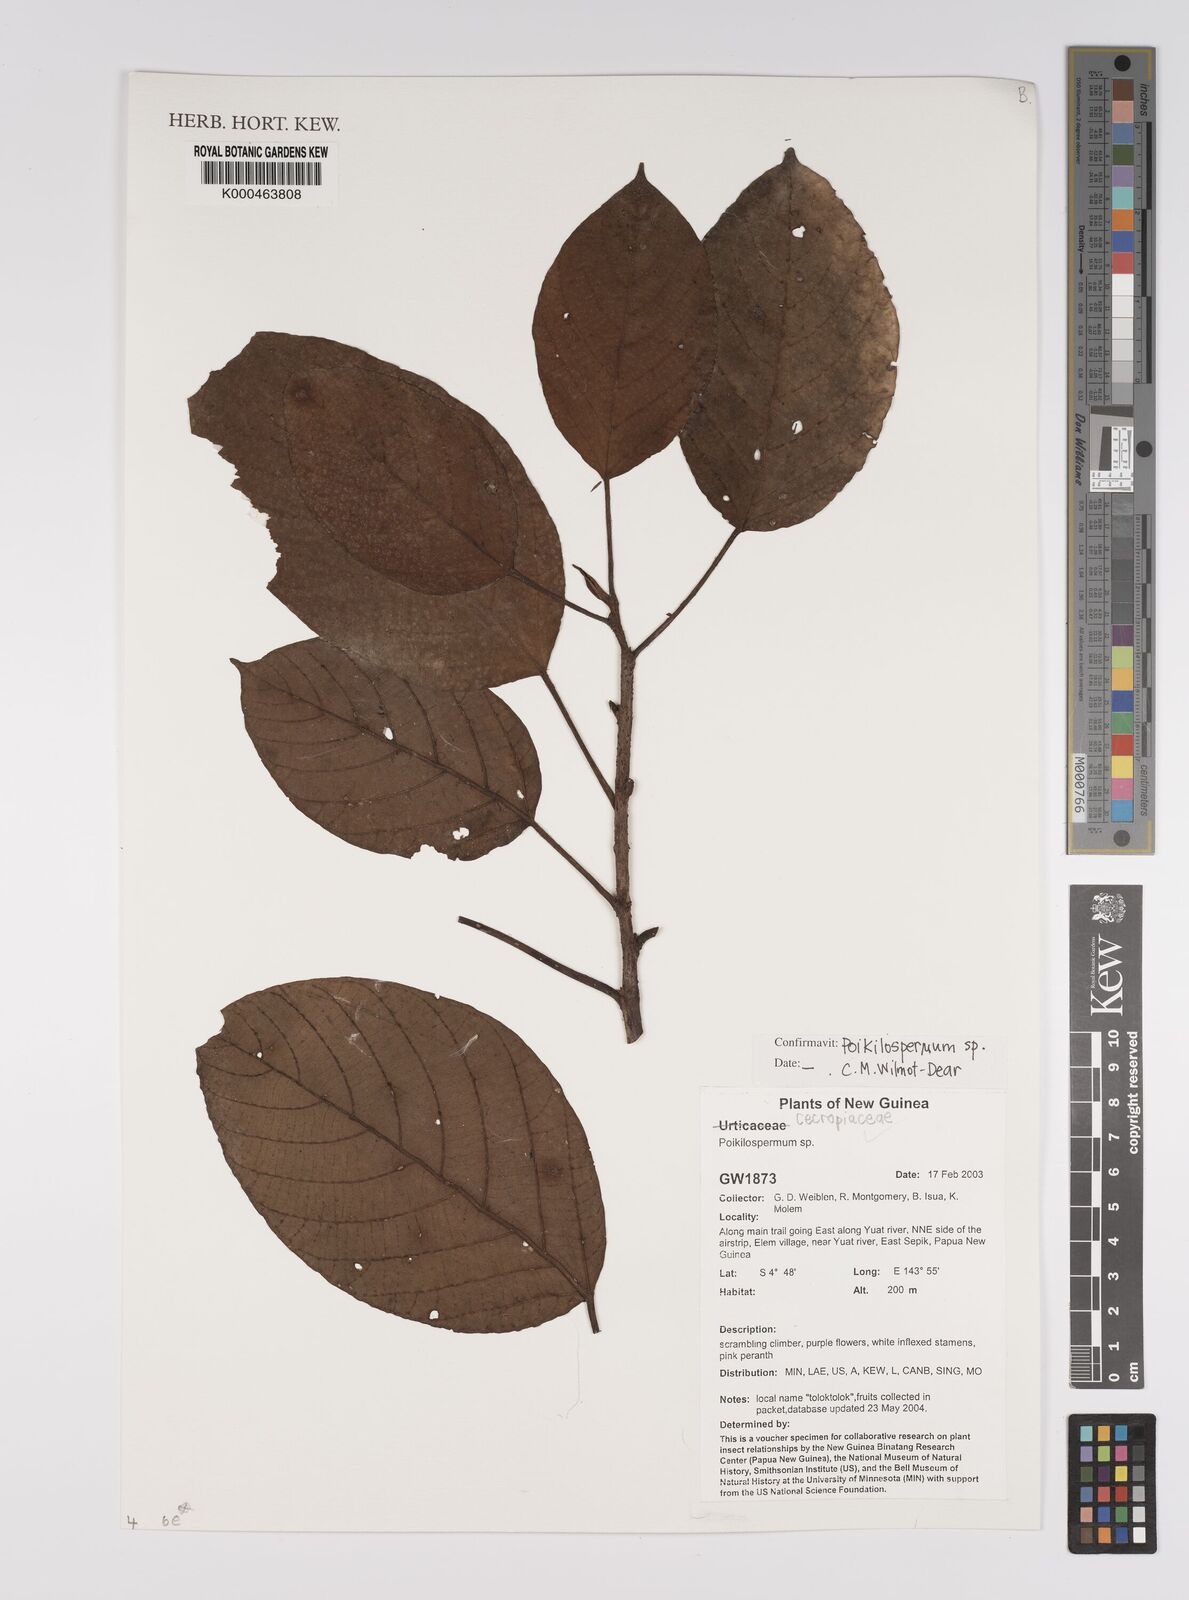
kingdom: Plantae
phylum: Tracheophyta
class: Magnoliopsida
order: Rosales
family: Urticaceae
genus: Poikilospermum
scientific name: Poikilospermum
